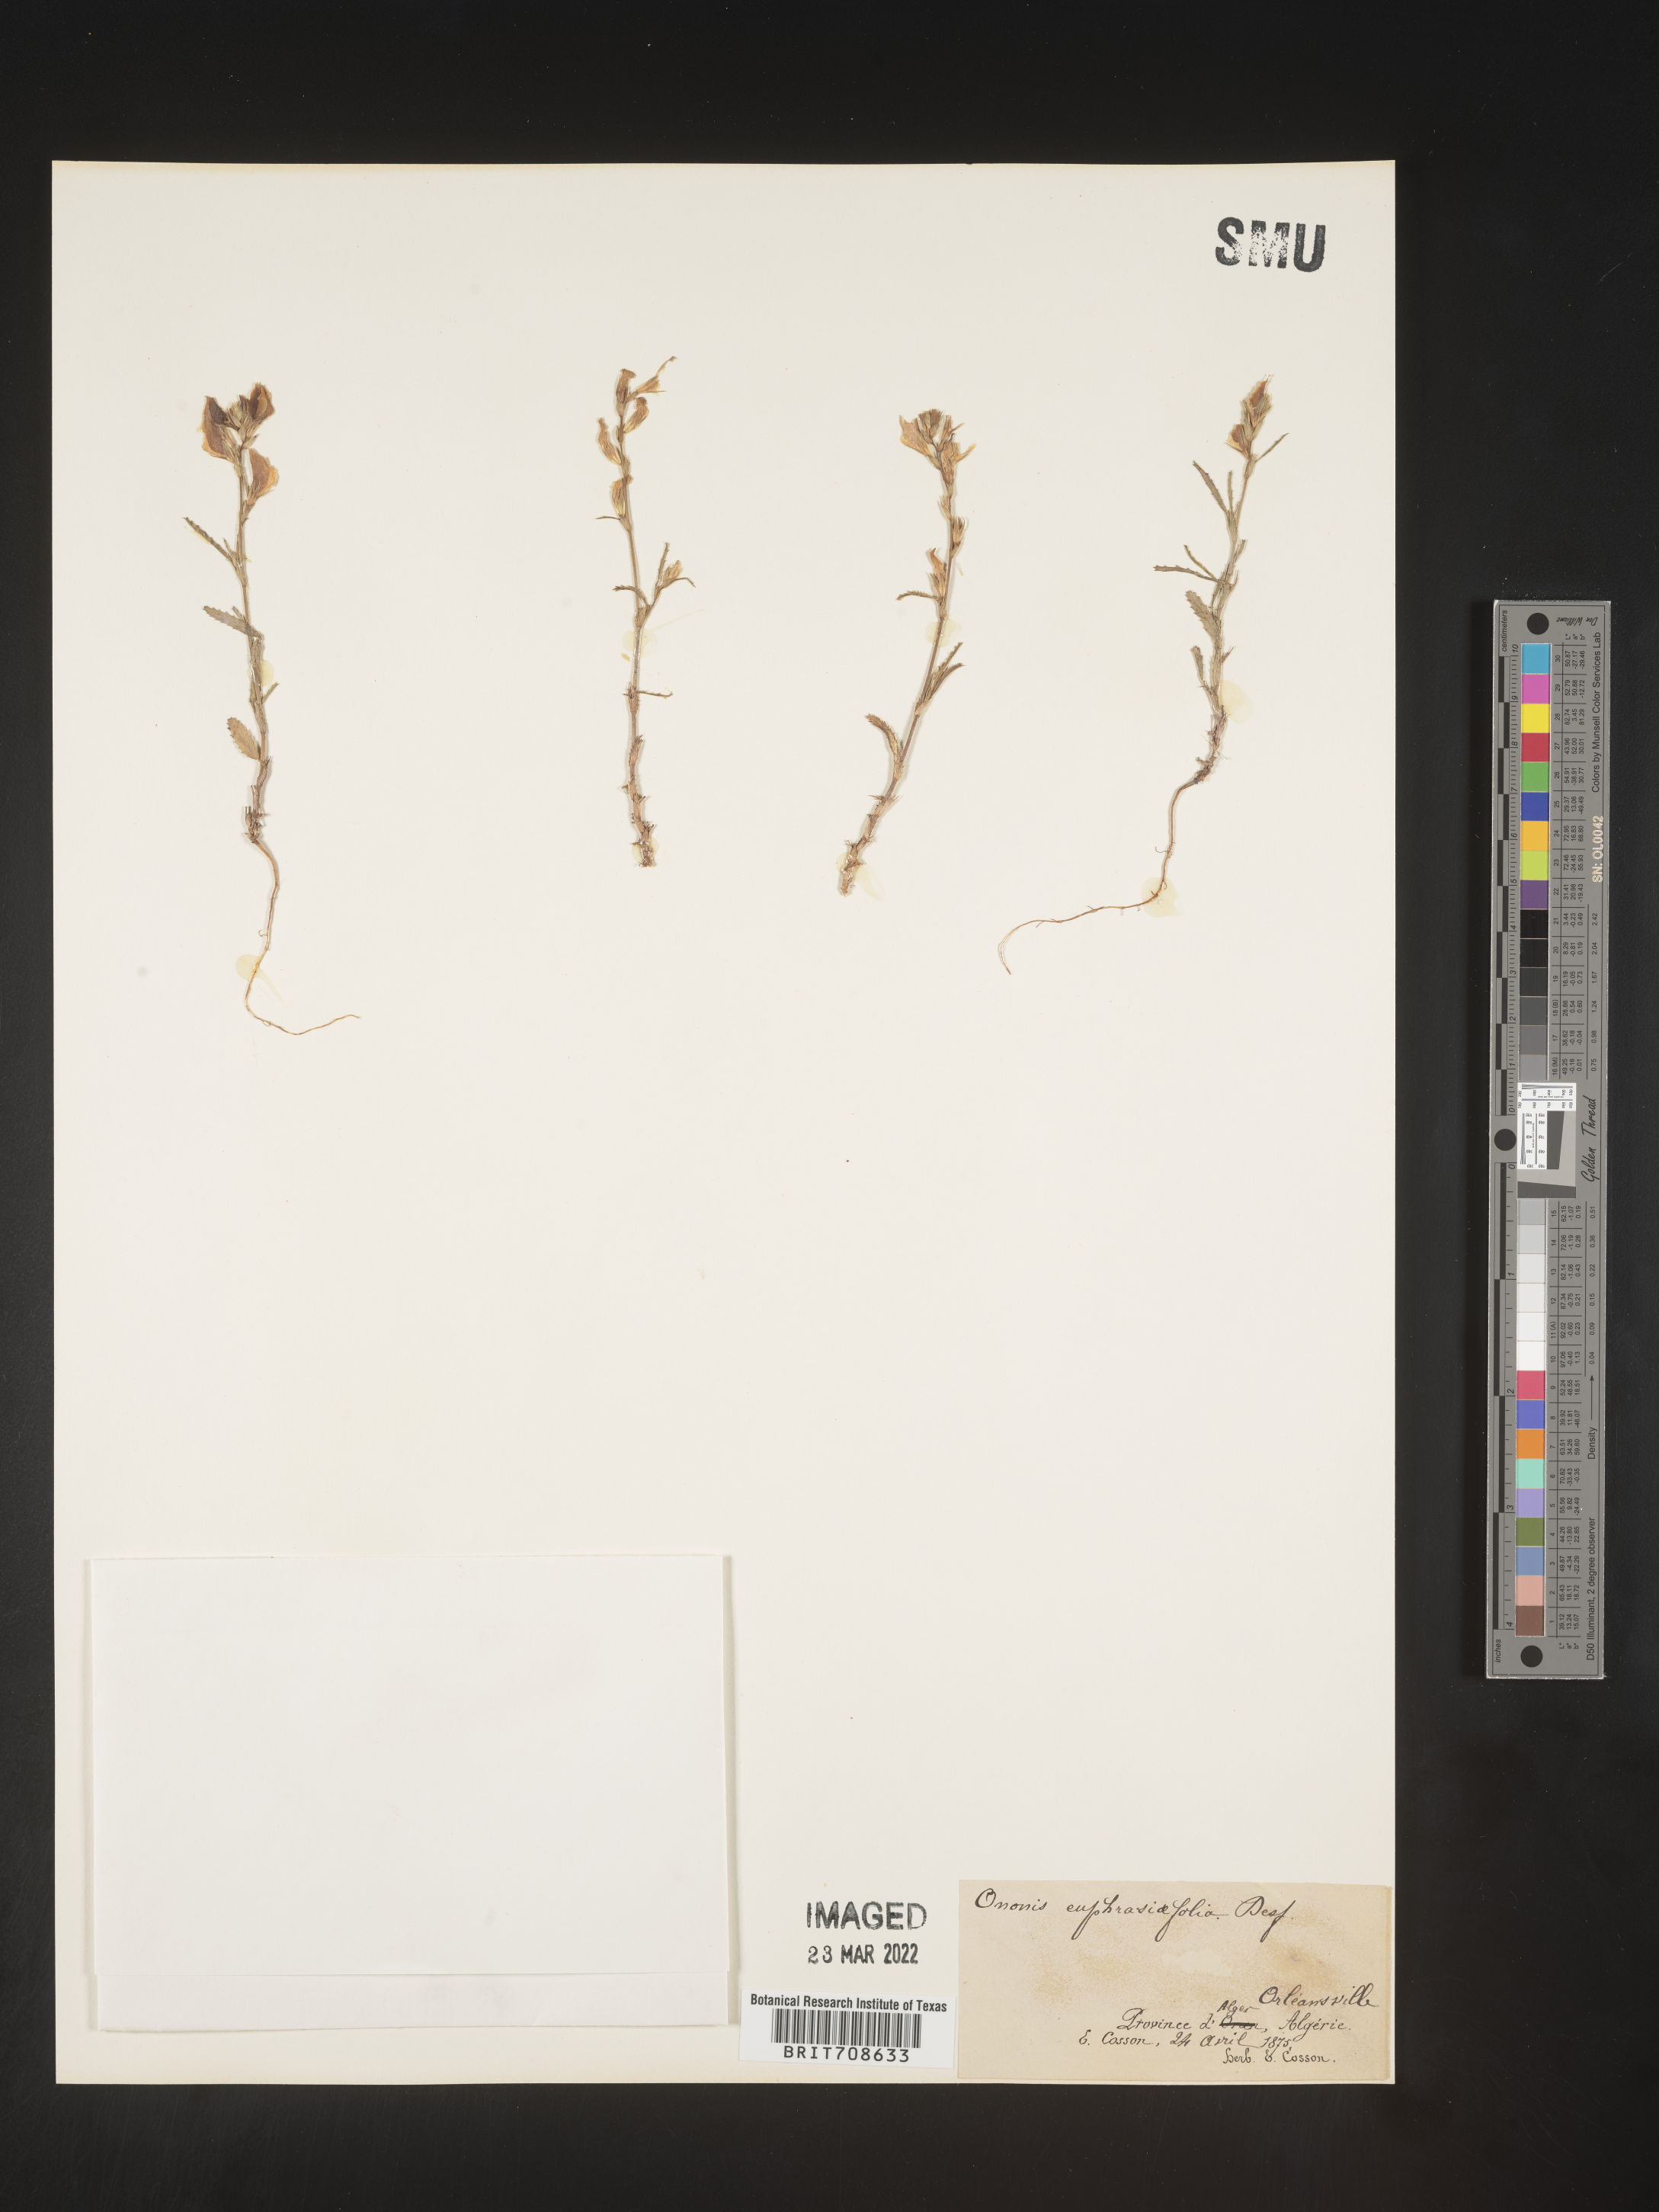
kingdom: Plantae
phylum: Tracheophyta
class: Magnoliopsida
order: Fabales
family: Fabaceae
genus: Ononis
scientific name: Ononis
